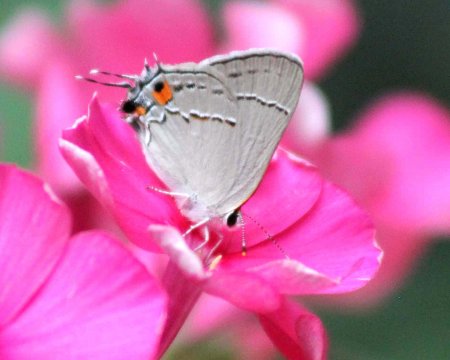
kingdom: Animalia
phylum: Arthropoda
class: Insecta
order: Lepidoptera
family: Lycaenidae
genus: Strymon
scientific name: Strymon melinus
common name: Gray Hairstreak
